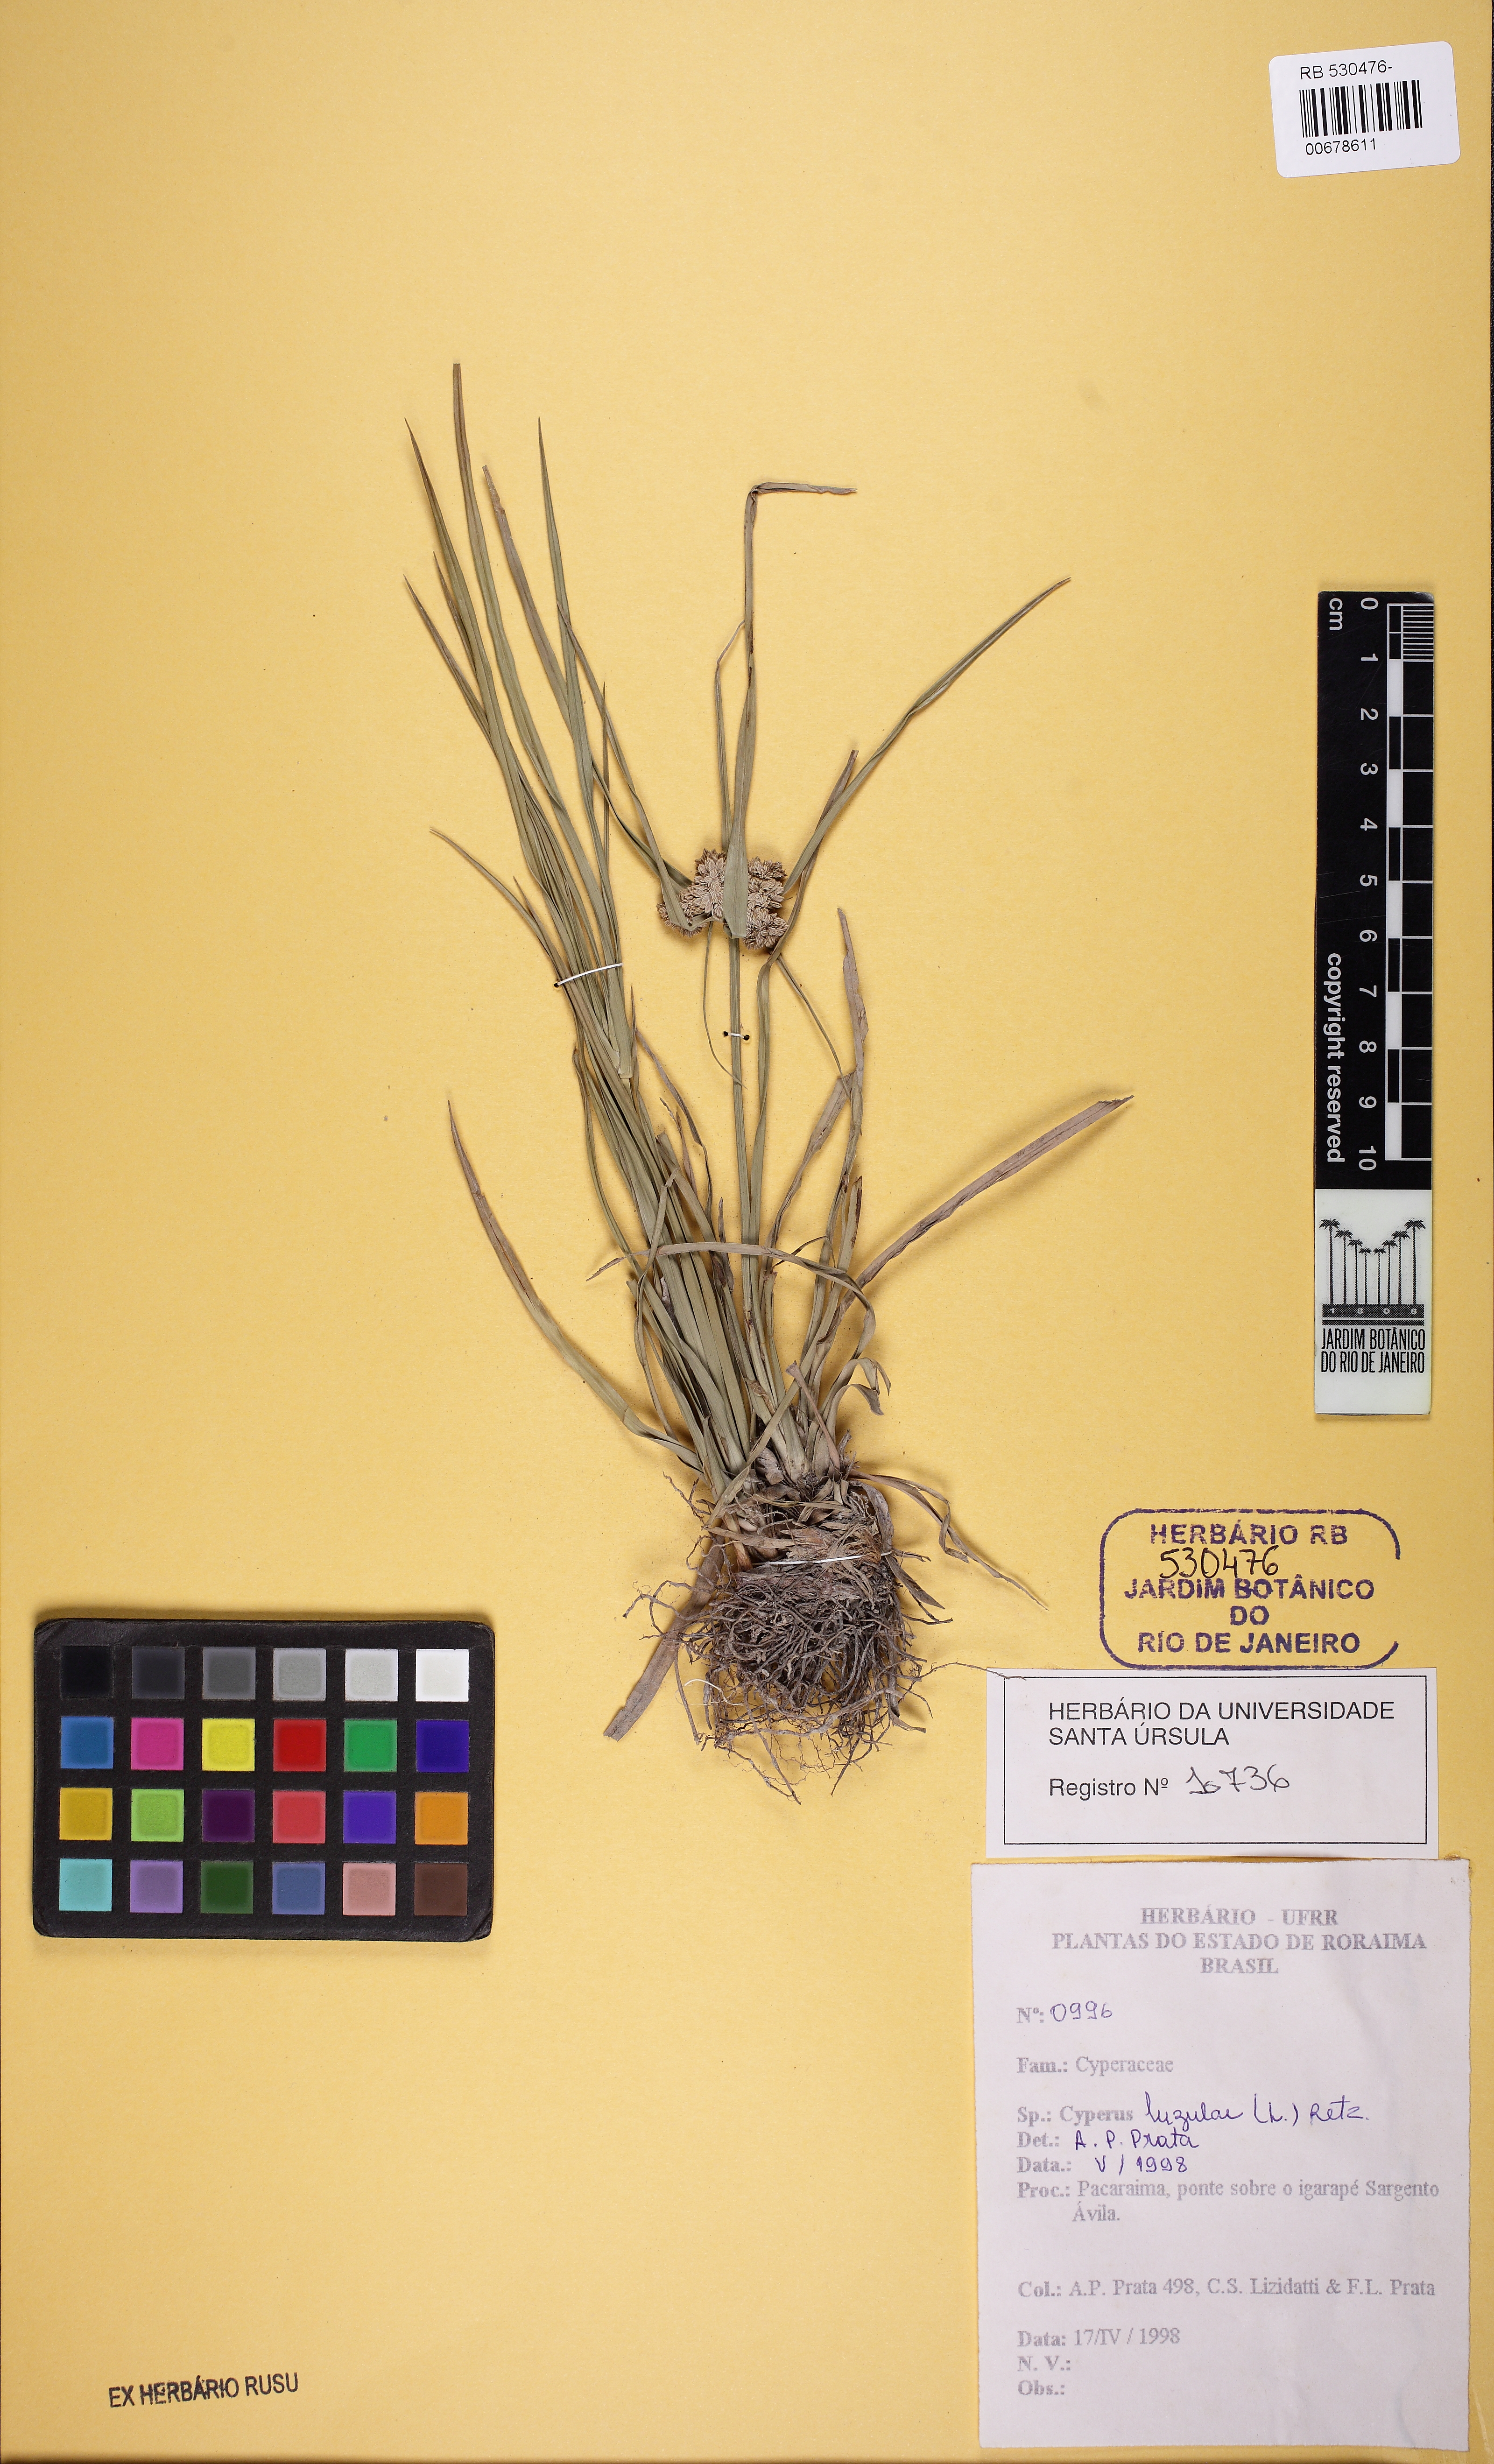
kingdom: Plantae
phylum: Tracheophyta
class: Liliopsida
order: Poales
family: Cyperaceae
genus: Cyperus
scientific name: Cyperus luzulae
